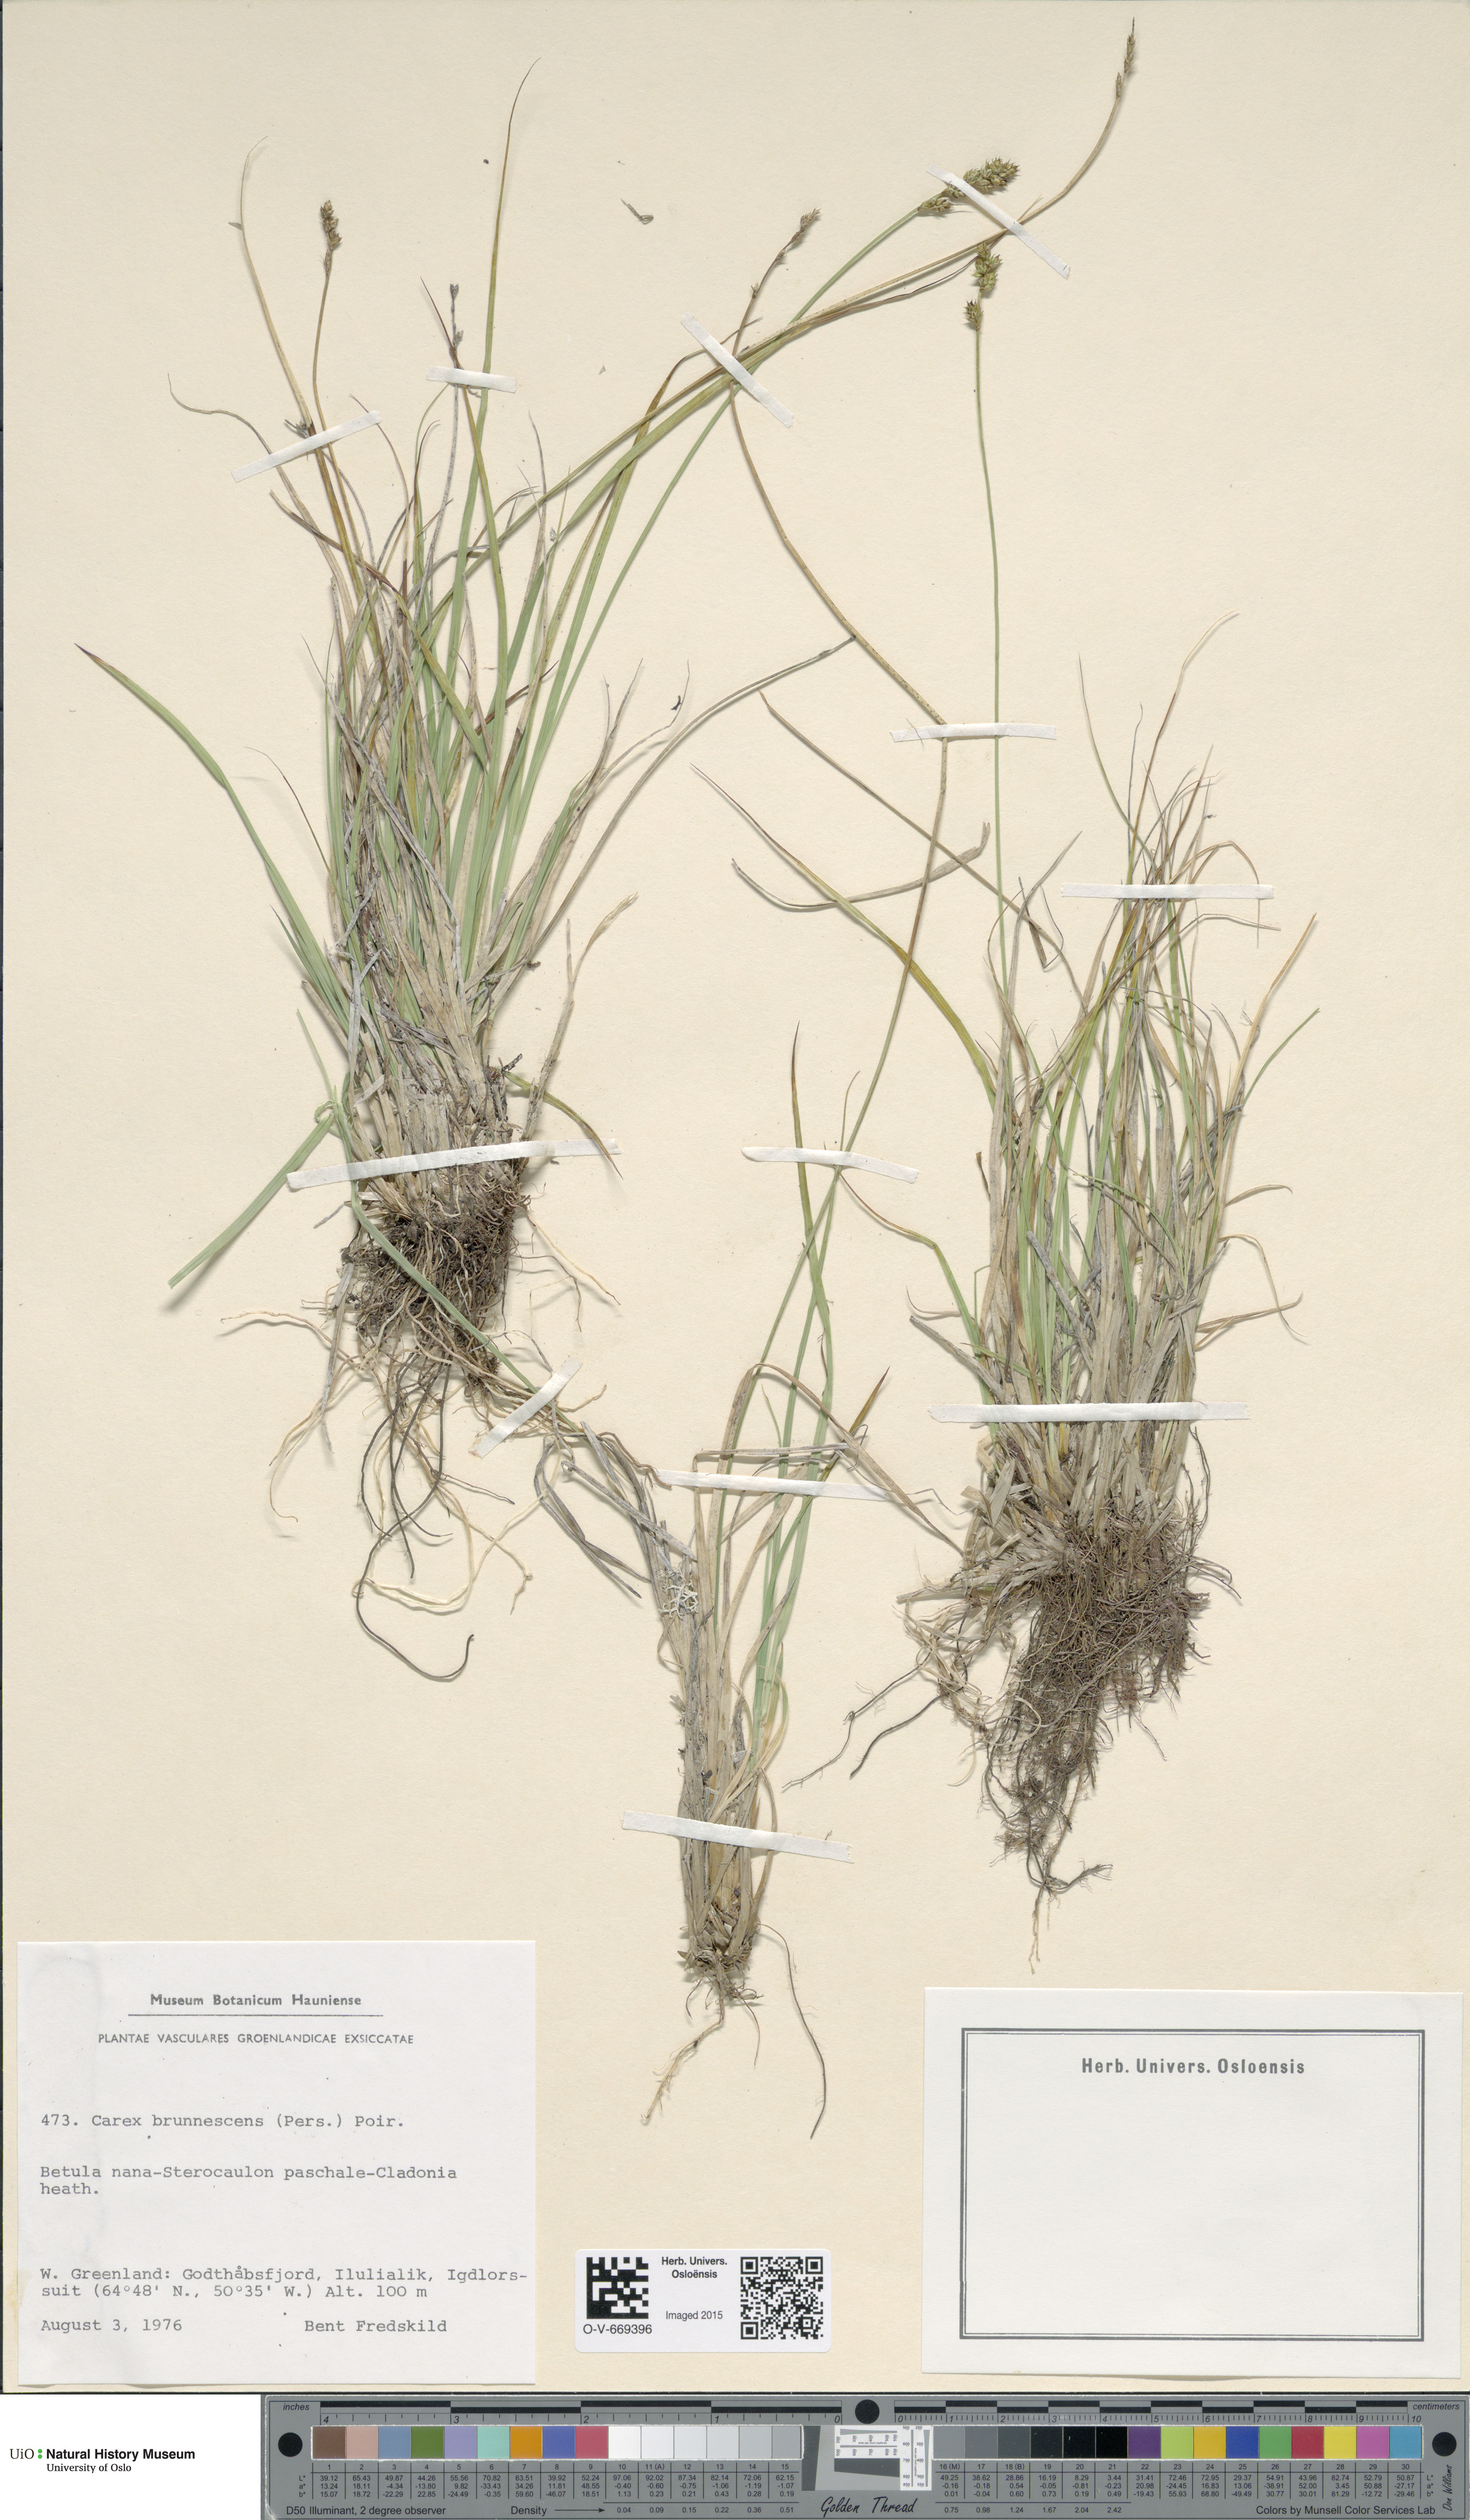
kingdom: Plantae
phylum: Tracheophyta
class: Liliopsida
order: Poales
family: Cyperaceae
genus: Carex
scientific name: Carex brunnescens
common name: Brown sedge
